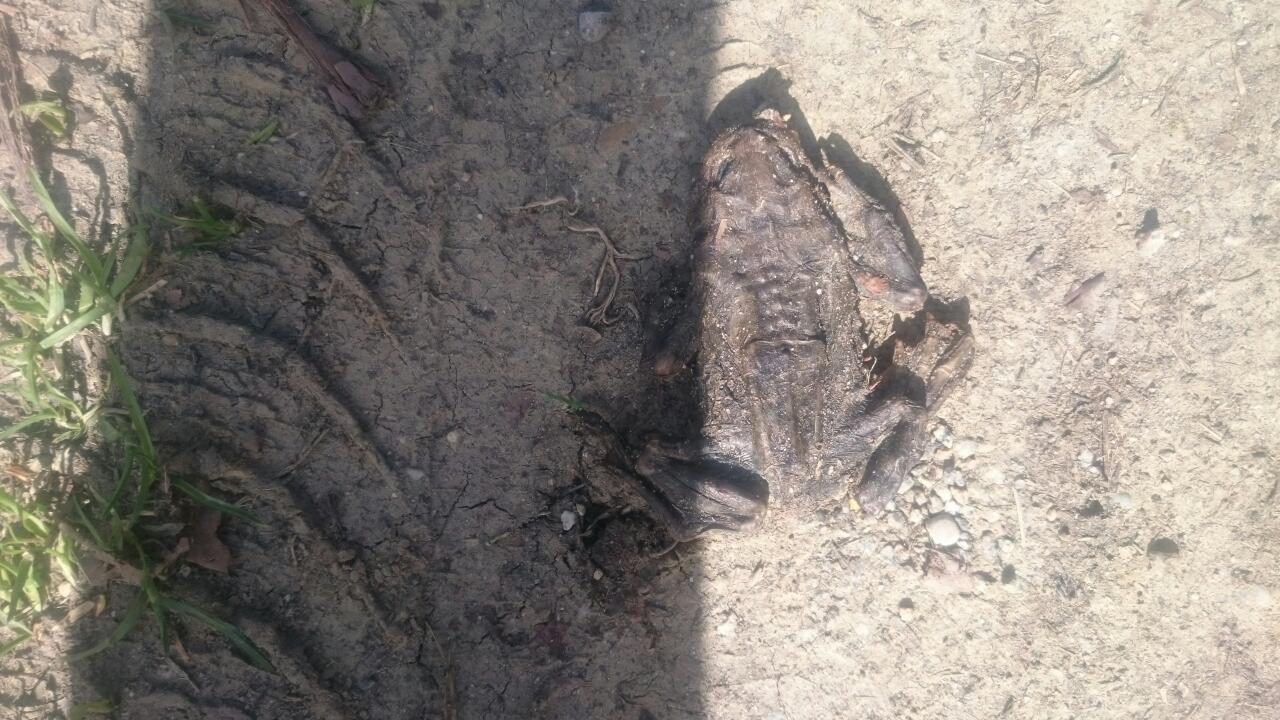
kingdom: Animalia
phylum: Chordata
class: Amphibia
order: Anura
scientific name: Anura
